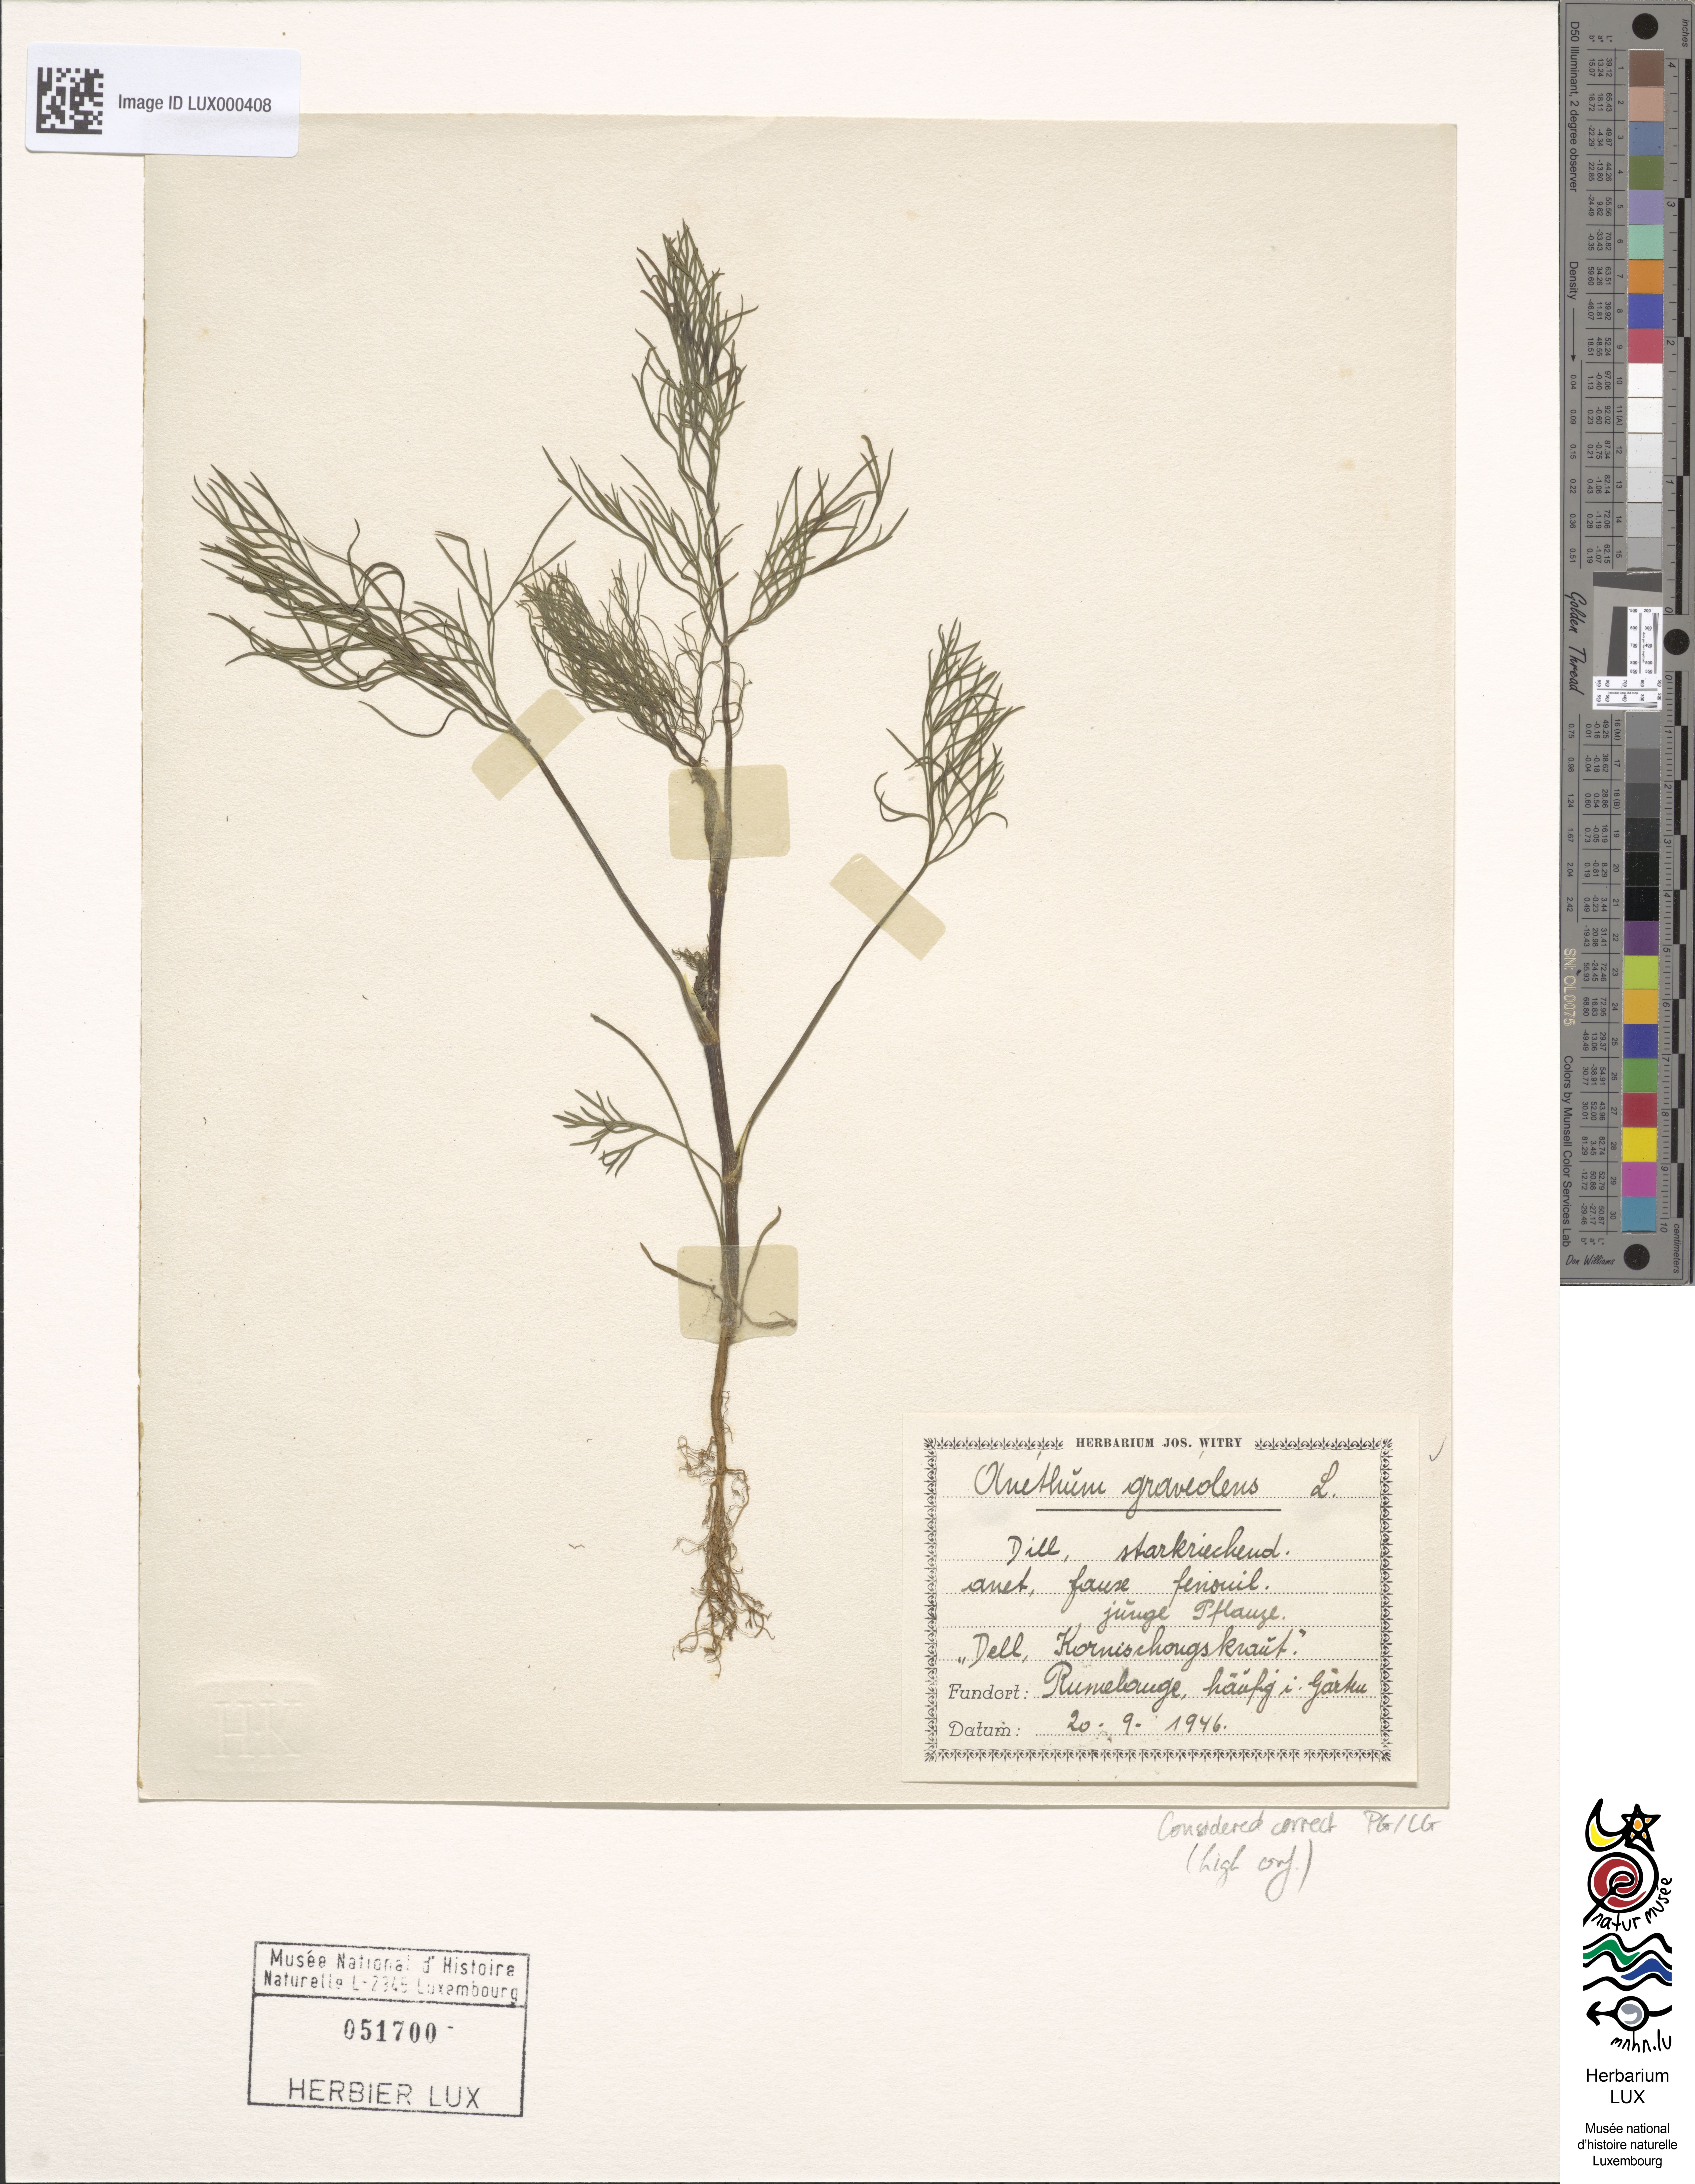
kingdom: Plantae
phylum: Tracheophyta
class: Magnoliopsida
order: Apiales
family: Apiaceae
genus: Anethum
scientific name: Anethum graveolens
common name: Dill
